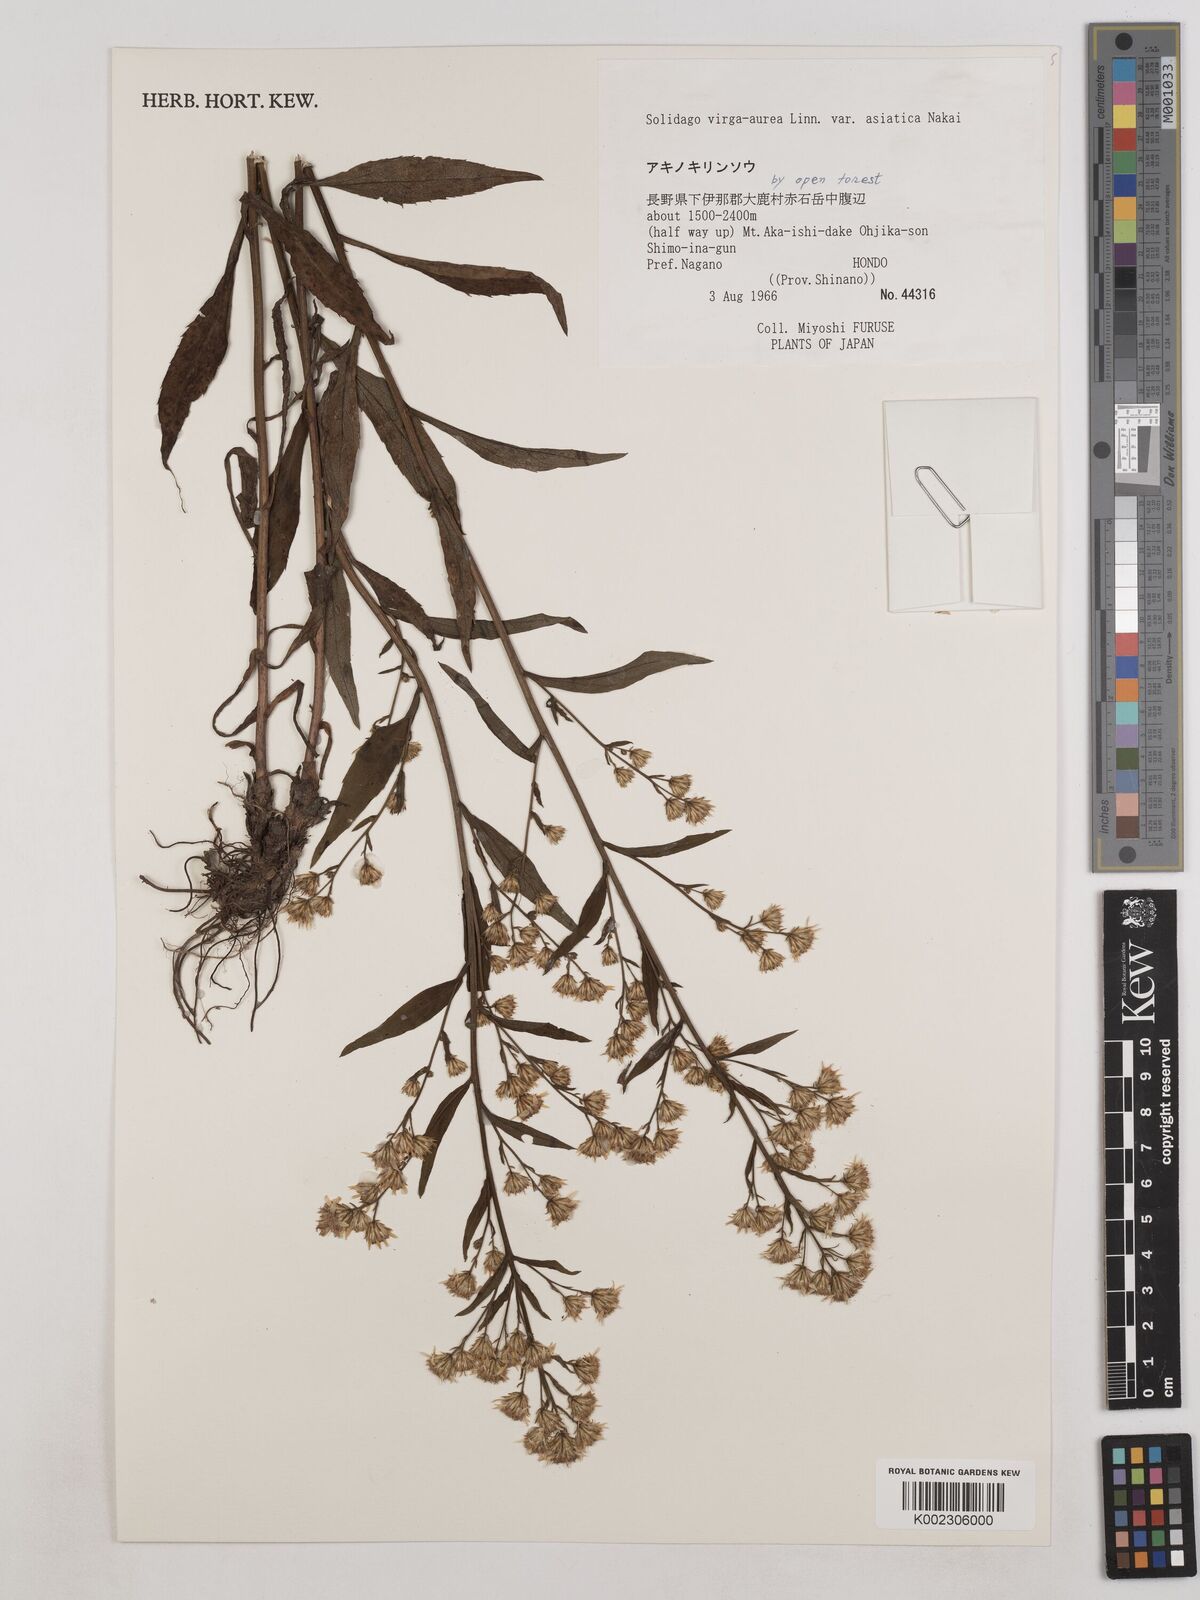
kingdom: Plantae
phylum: Tracheophyta
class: Magnoliopsida
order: Asterales
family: Asteraceae
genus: Solidago
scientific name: Solidago virgaurea
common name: Goldenrod
